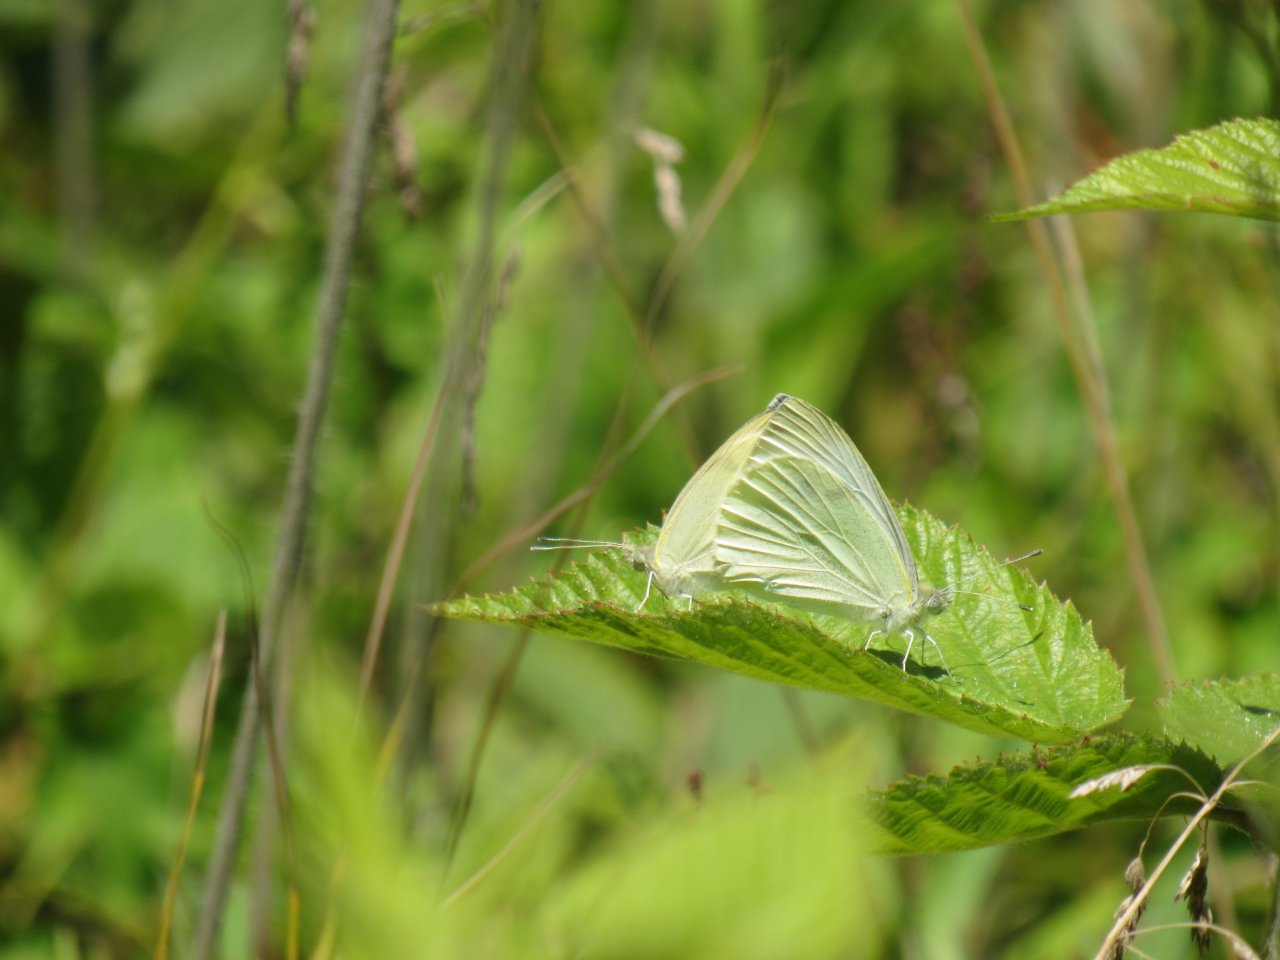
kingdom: Animalia
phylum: Arthropoda
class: Insecta
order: Lepidoptera
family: Pieridae
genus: Pieris
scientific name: Pieris rapae
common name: Cabbage White
